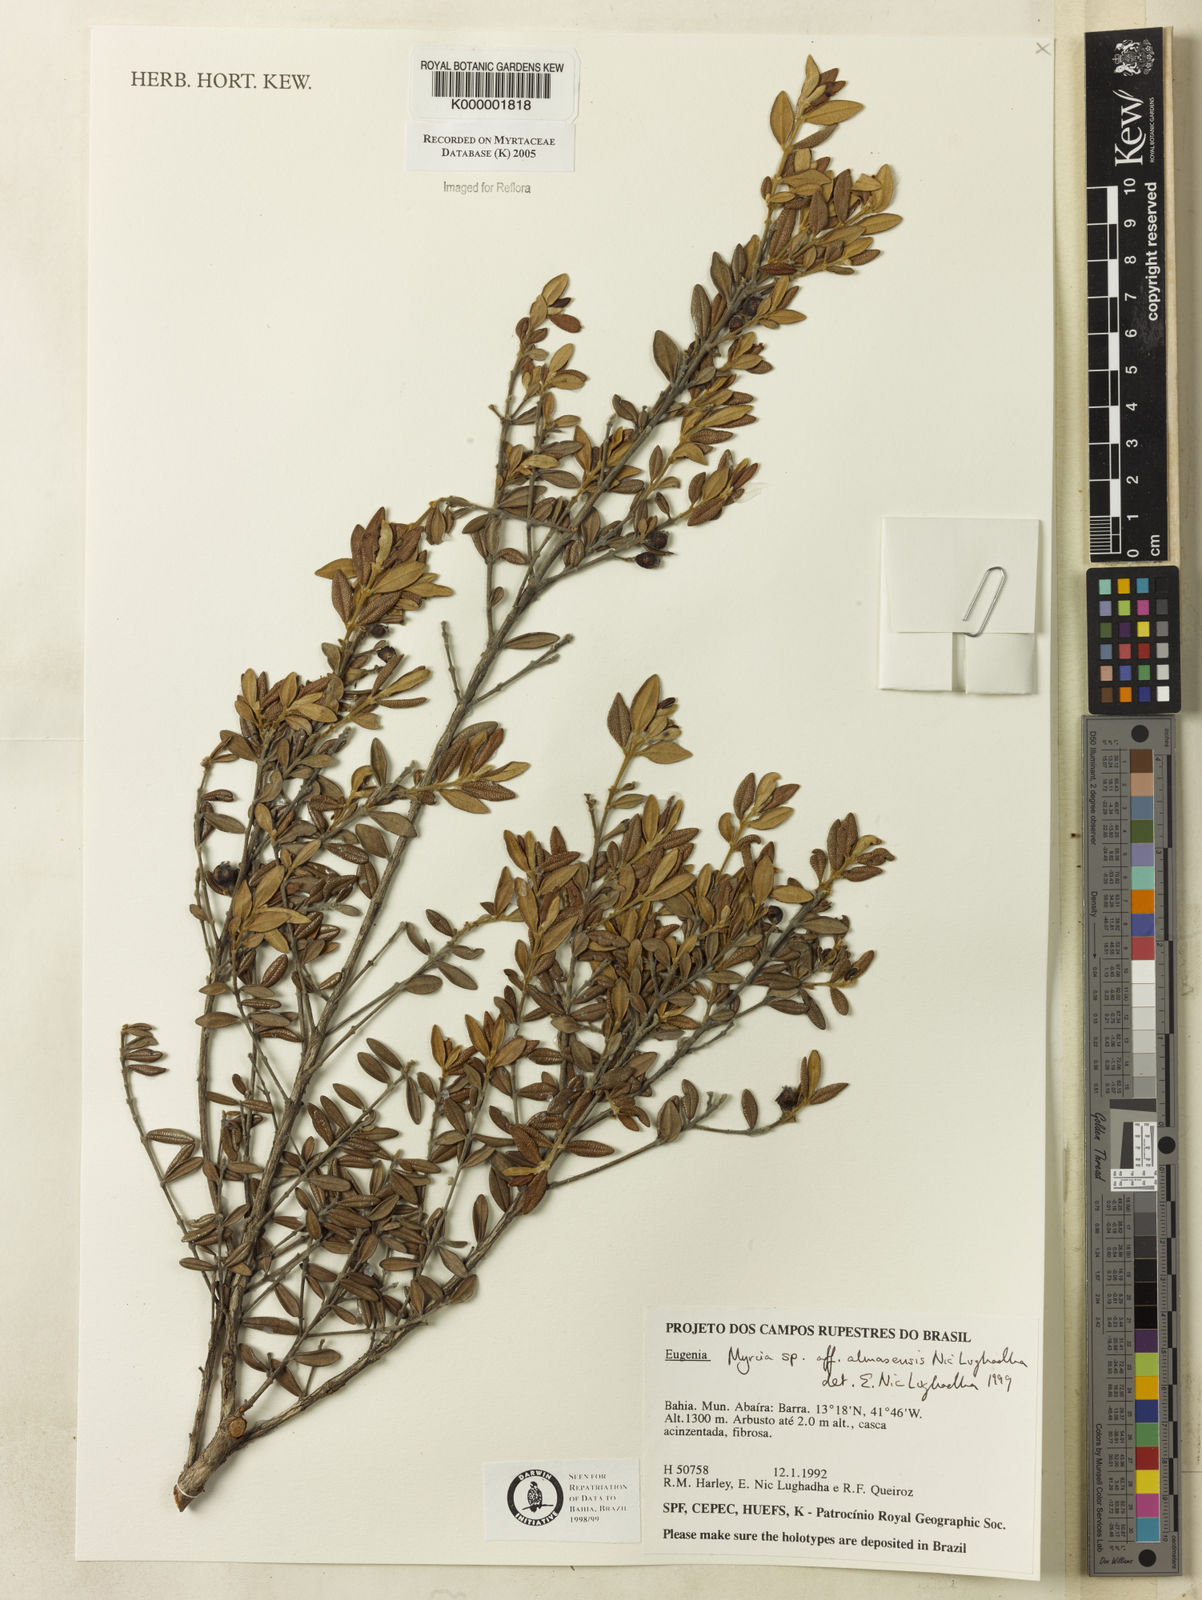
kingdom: Plantae
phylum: Tracheophyta
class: Magnoliopsida
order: Myrtales
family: Myrtaceae
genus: Myrcia
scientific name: Myrcia almasensis
